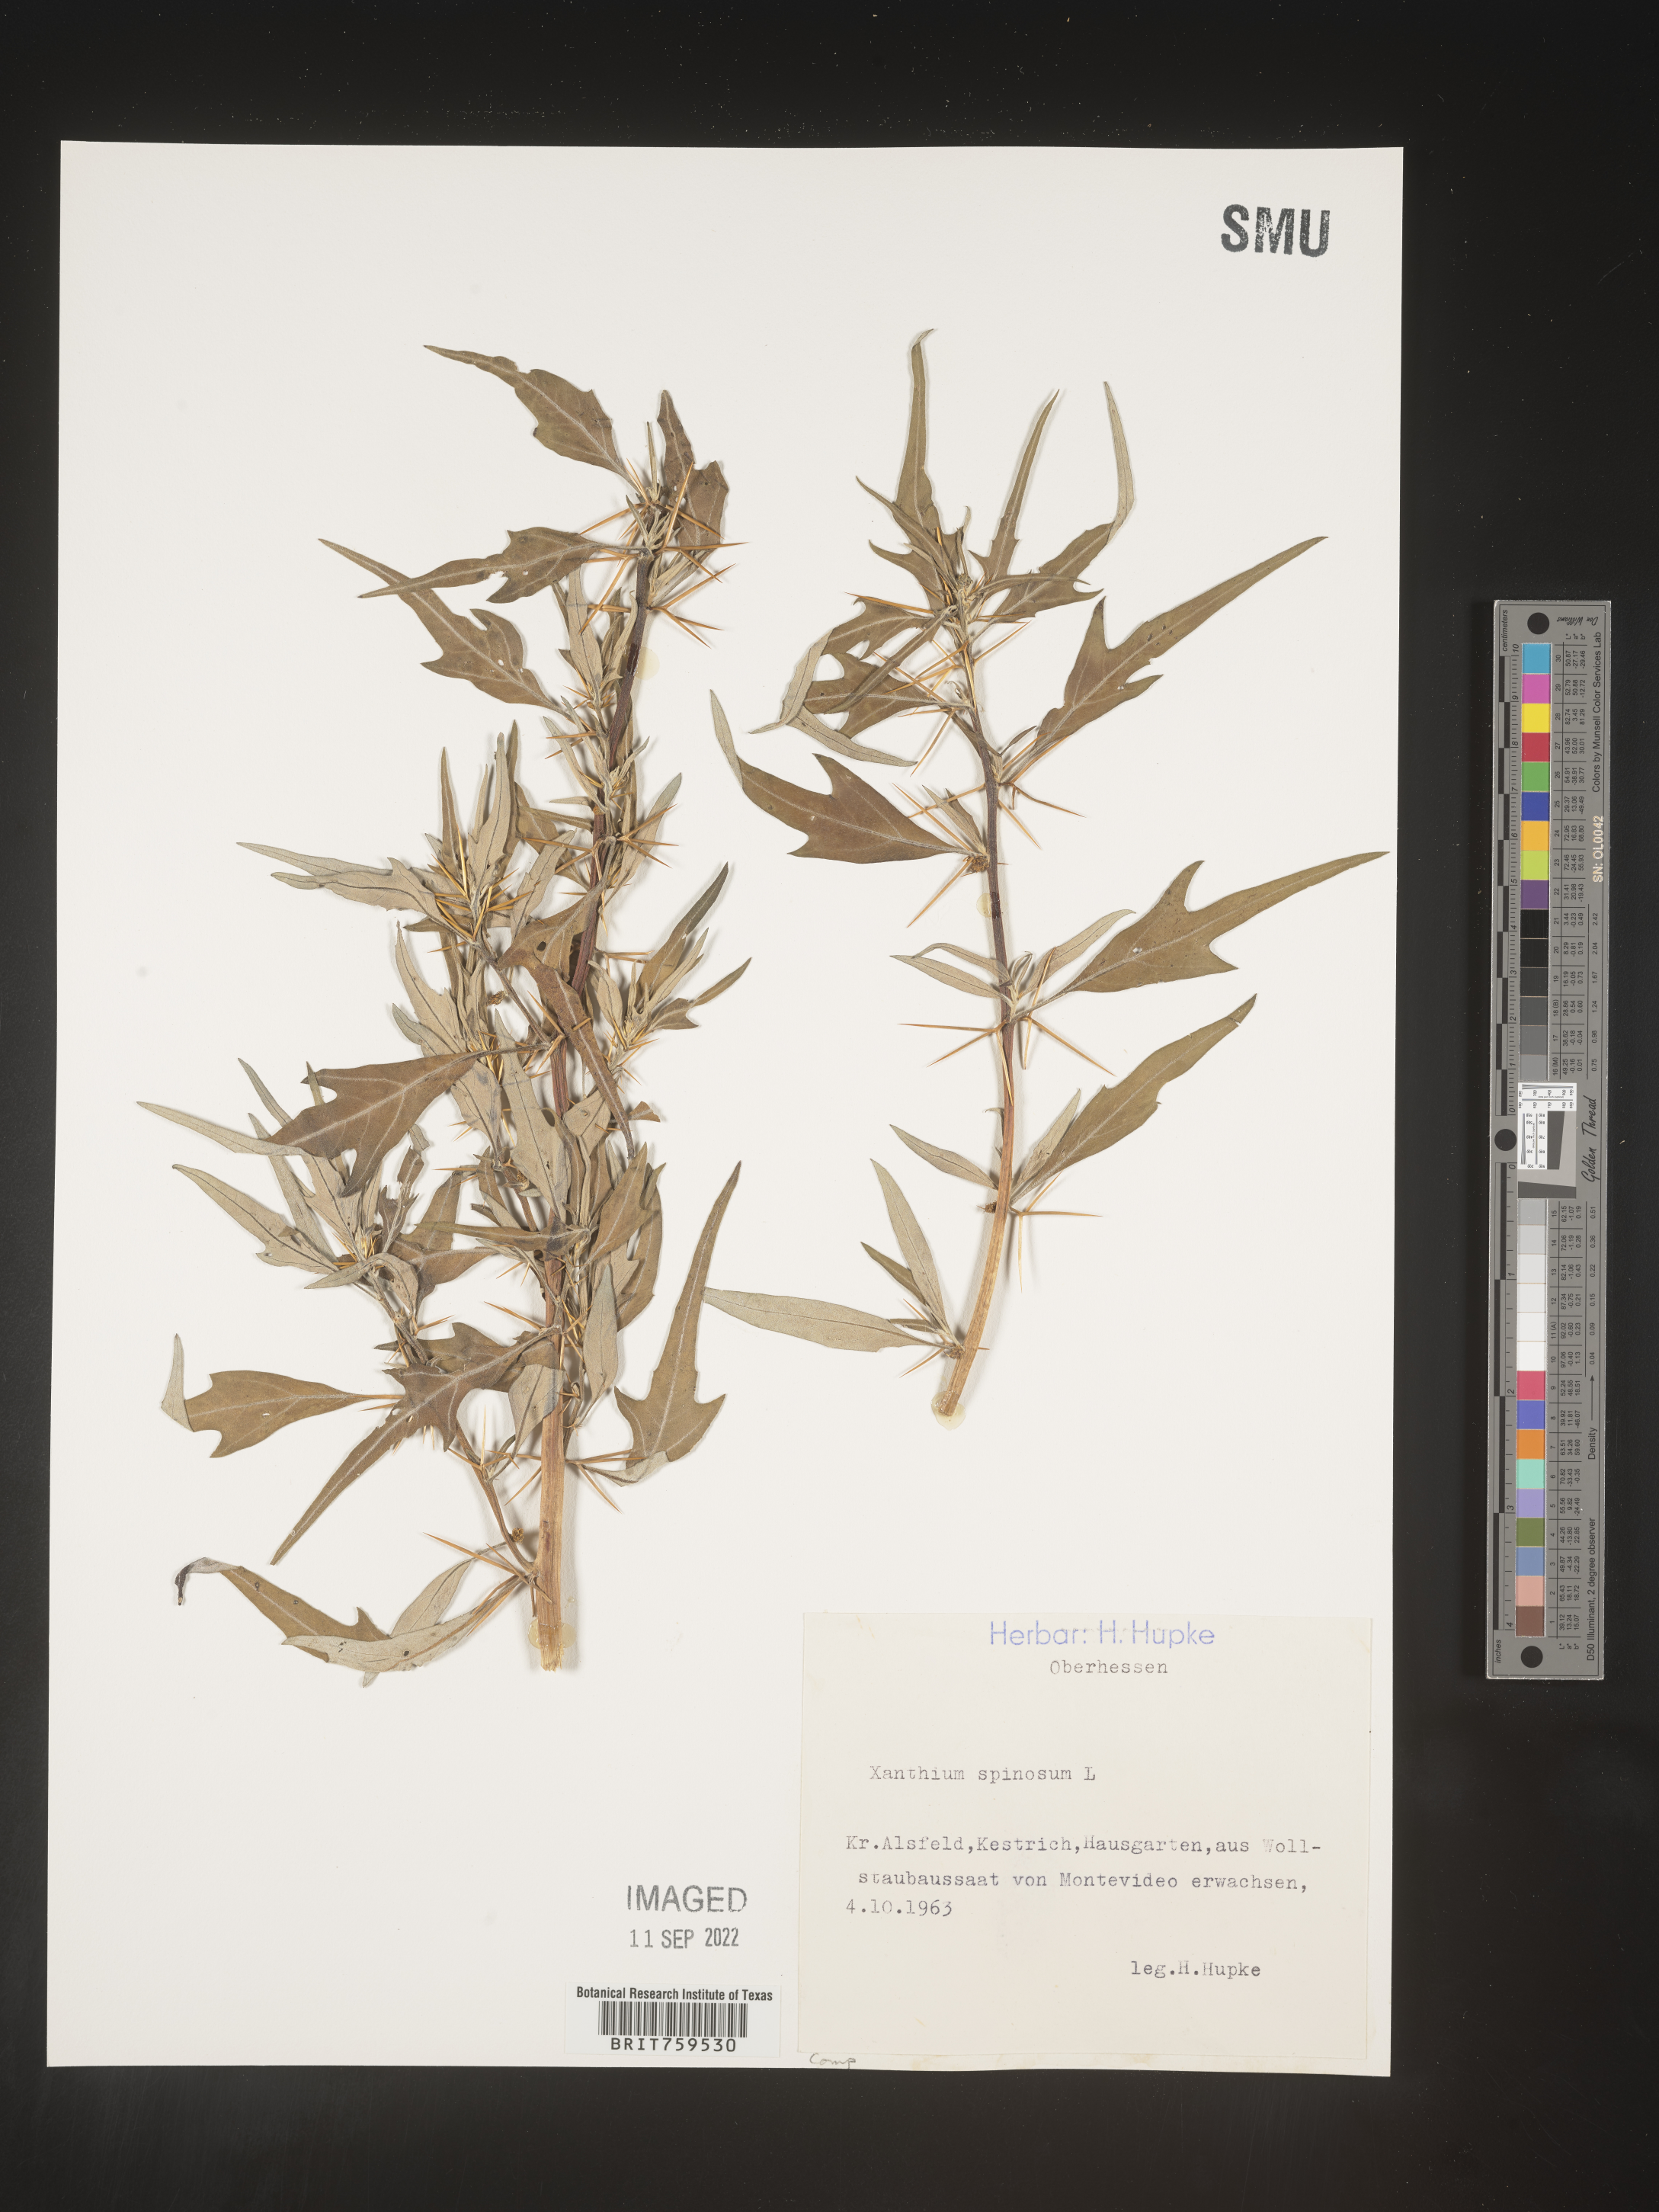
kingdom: Plantae
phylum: Tracheophyta
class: Magnoliopsida
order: Asterales
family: Asteraceae
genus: Xanthium
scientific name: Xanthium
